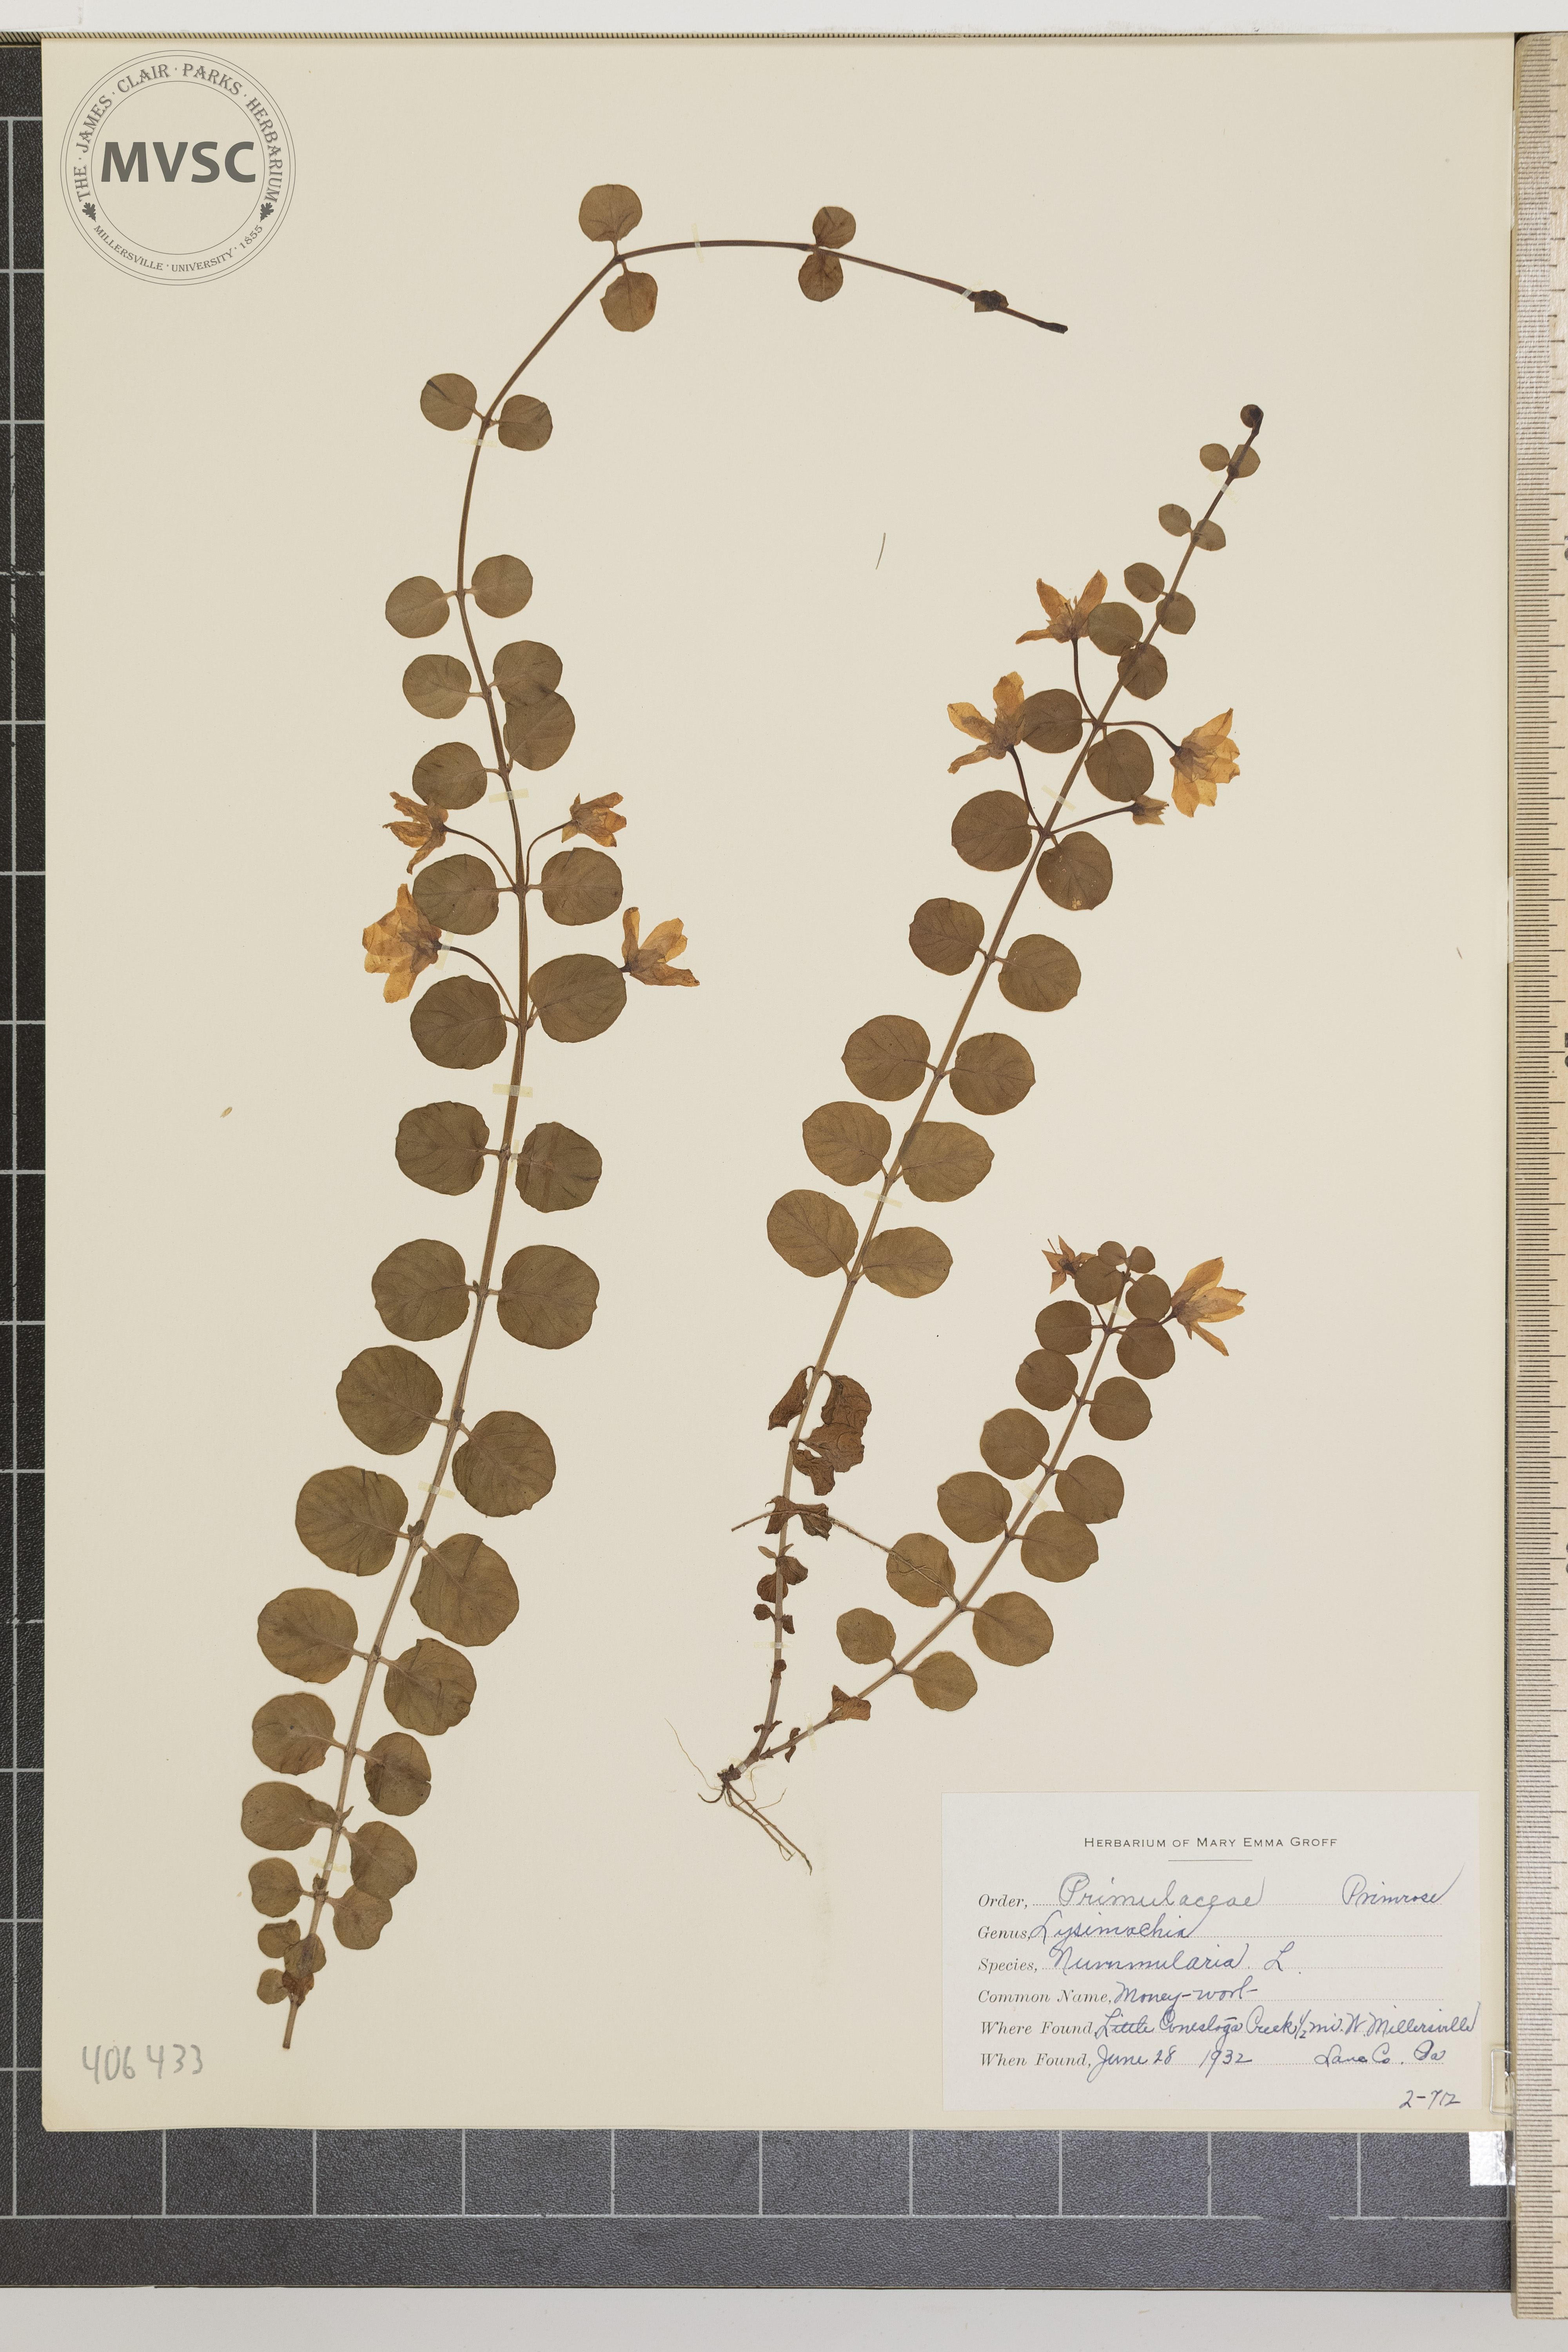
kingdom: Plantae
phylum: Tracheophyta
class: Magnoliopsida
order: Ericales
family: Primulaceae
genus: Lysimachia
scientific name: Lysimachia nummularia
